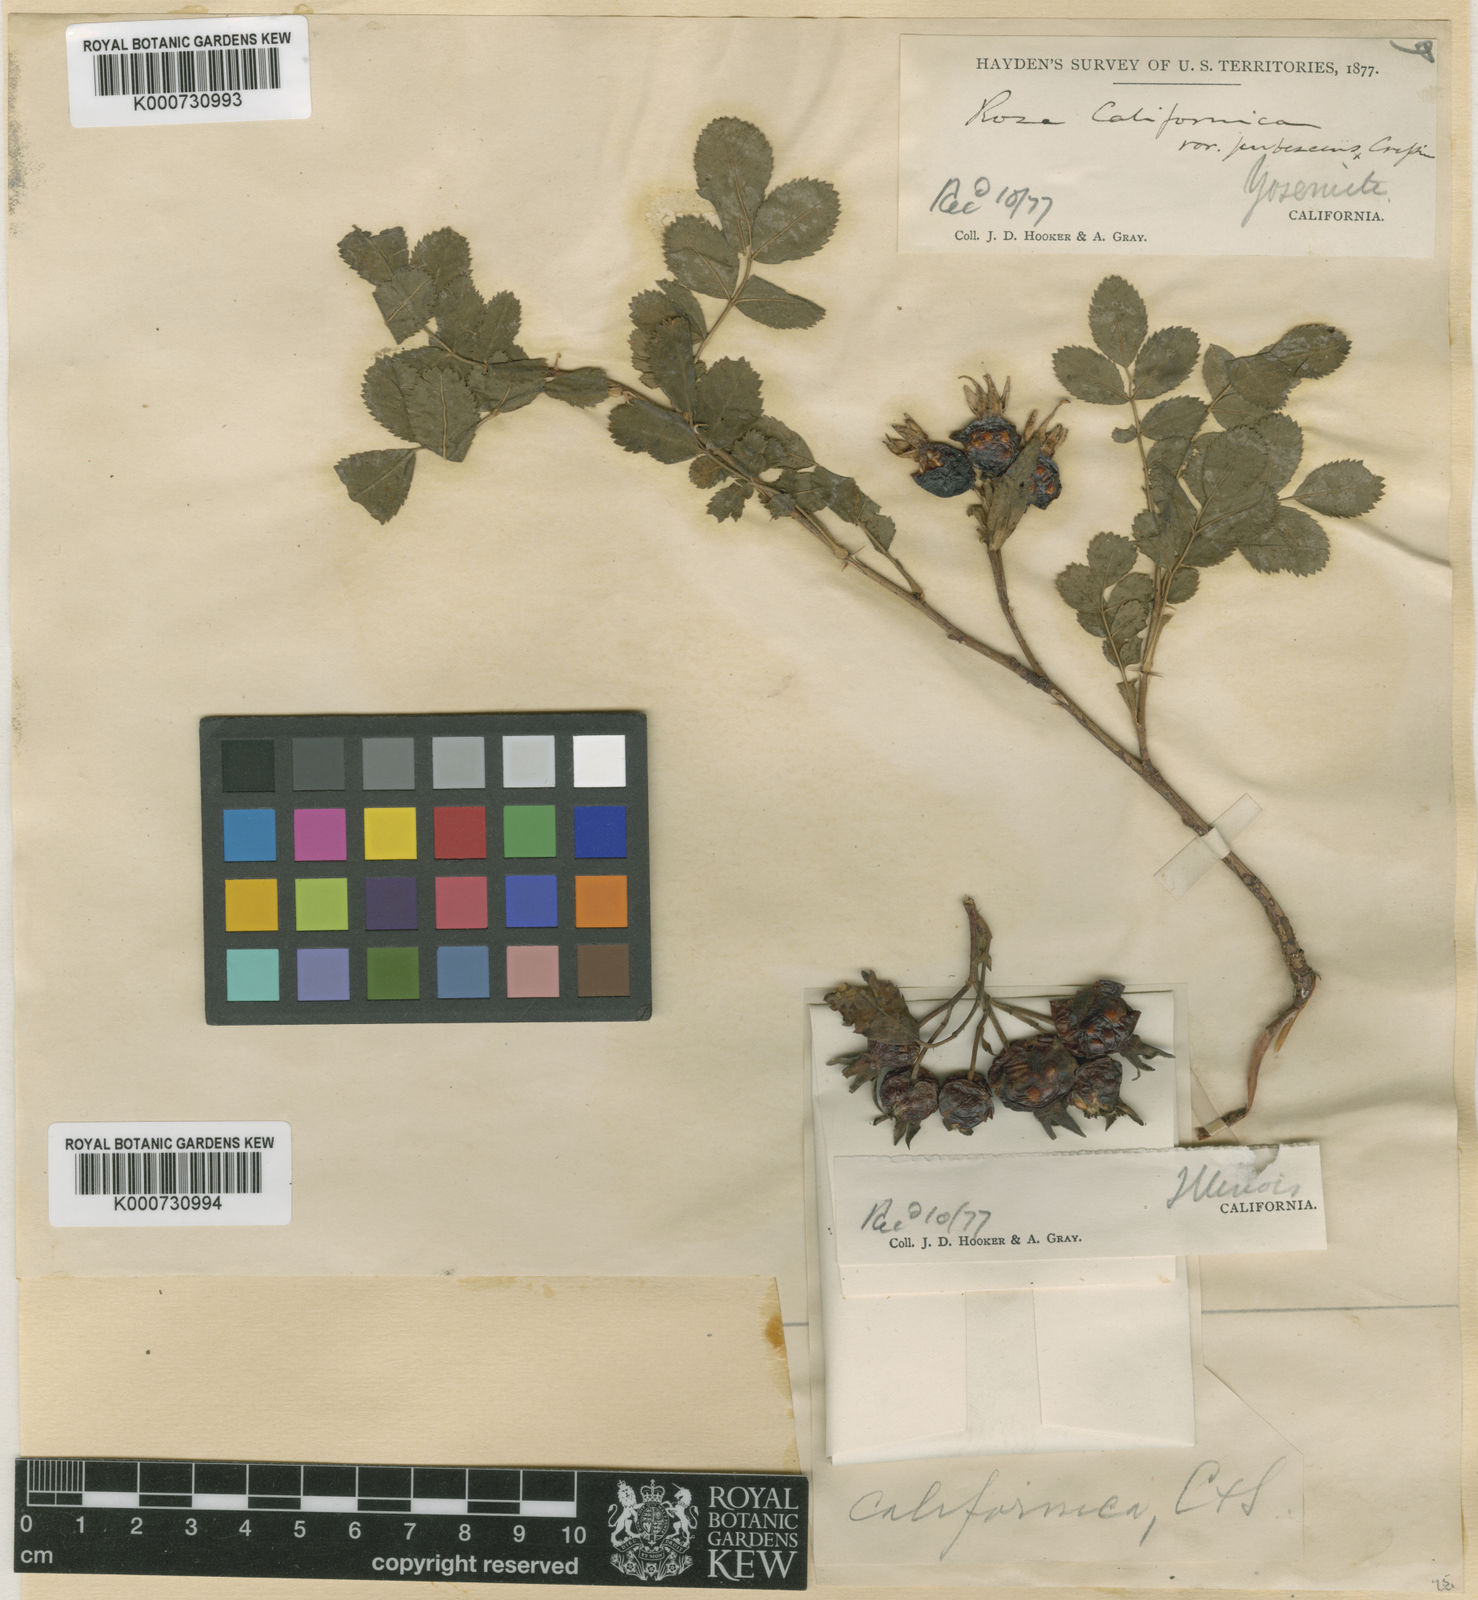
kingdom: Plantae
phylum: Tracheophyta
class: Magnoliopsida
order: Rosales
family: Rosaceae
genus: Rosa
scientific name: Rosa bridgesii
